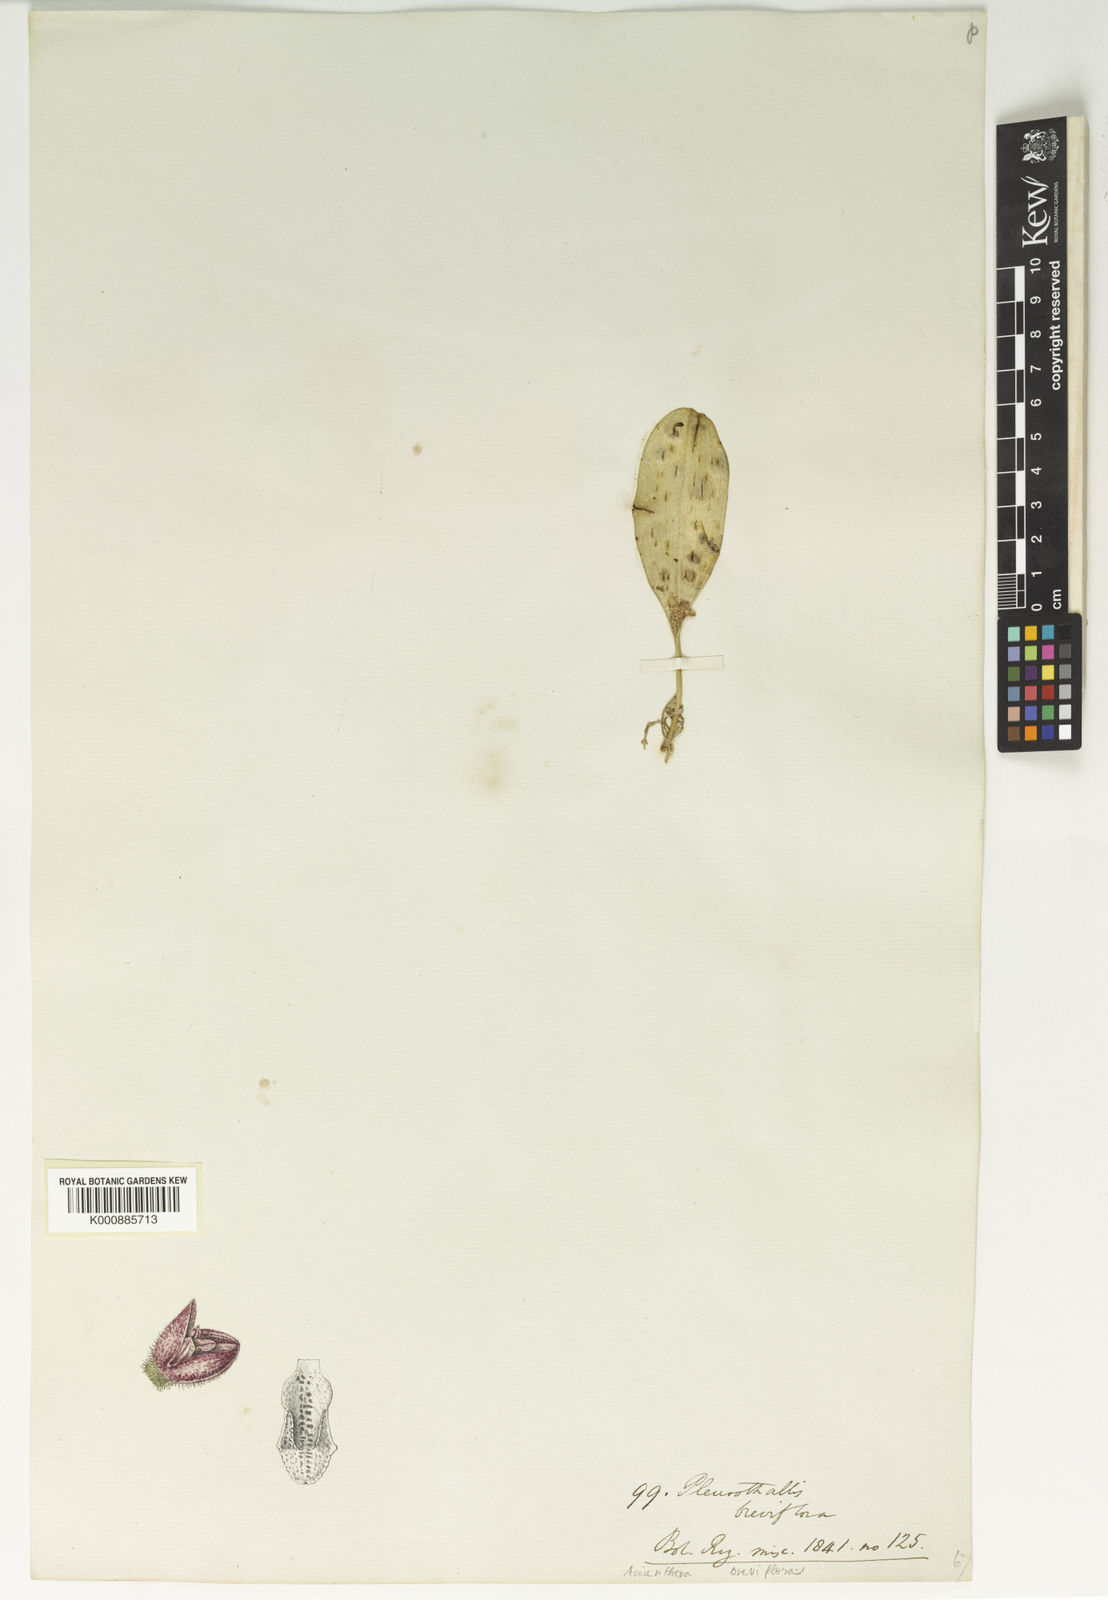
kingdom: Plantae
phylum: Tracheophyta
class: Liliopsida
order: Asparagales
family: Orchidaceae
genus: Acianthera
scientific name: Acianthera breviflora
